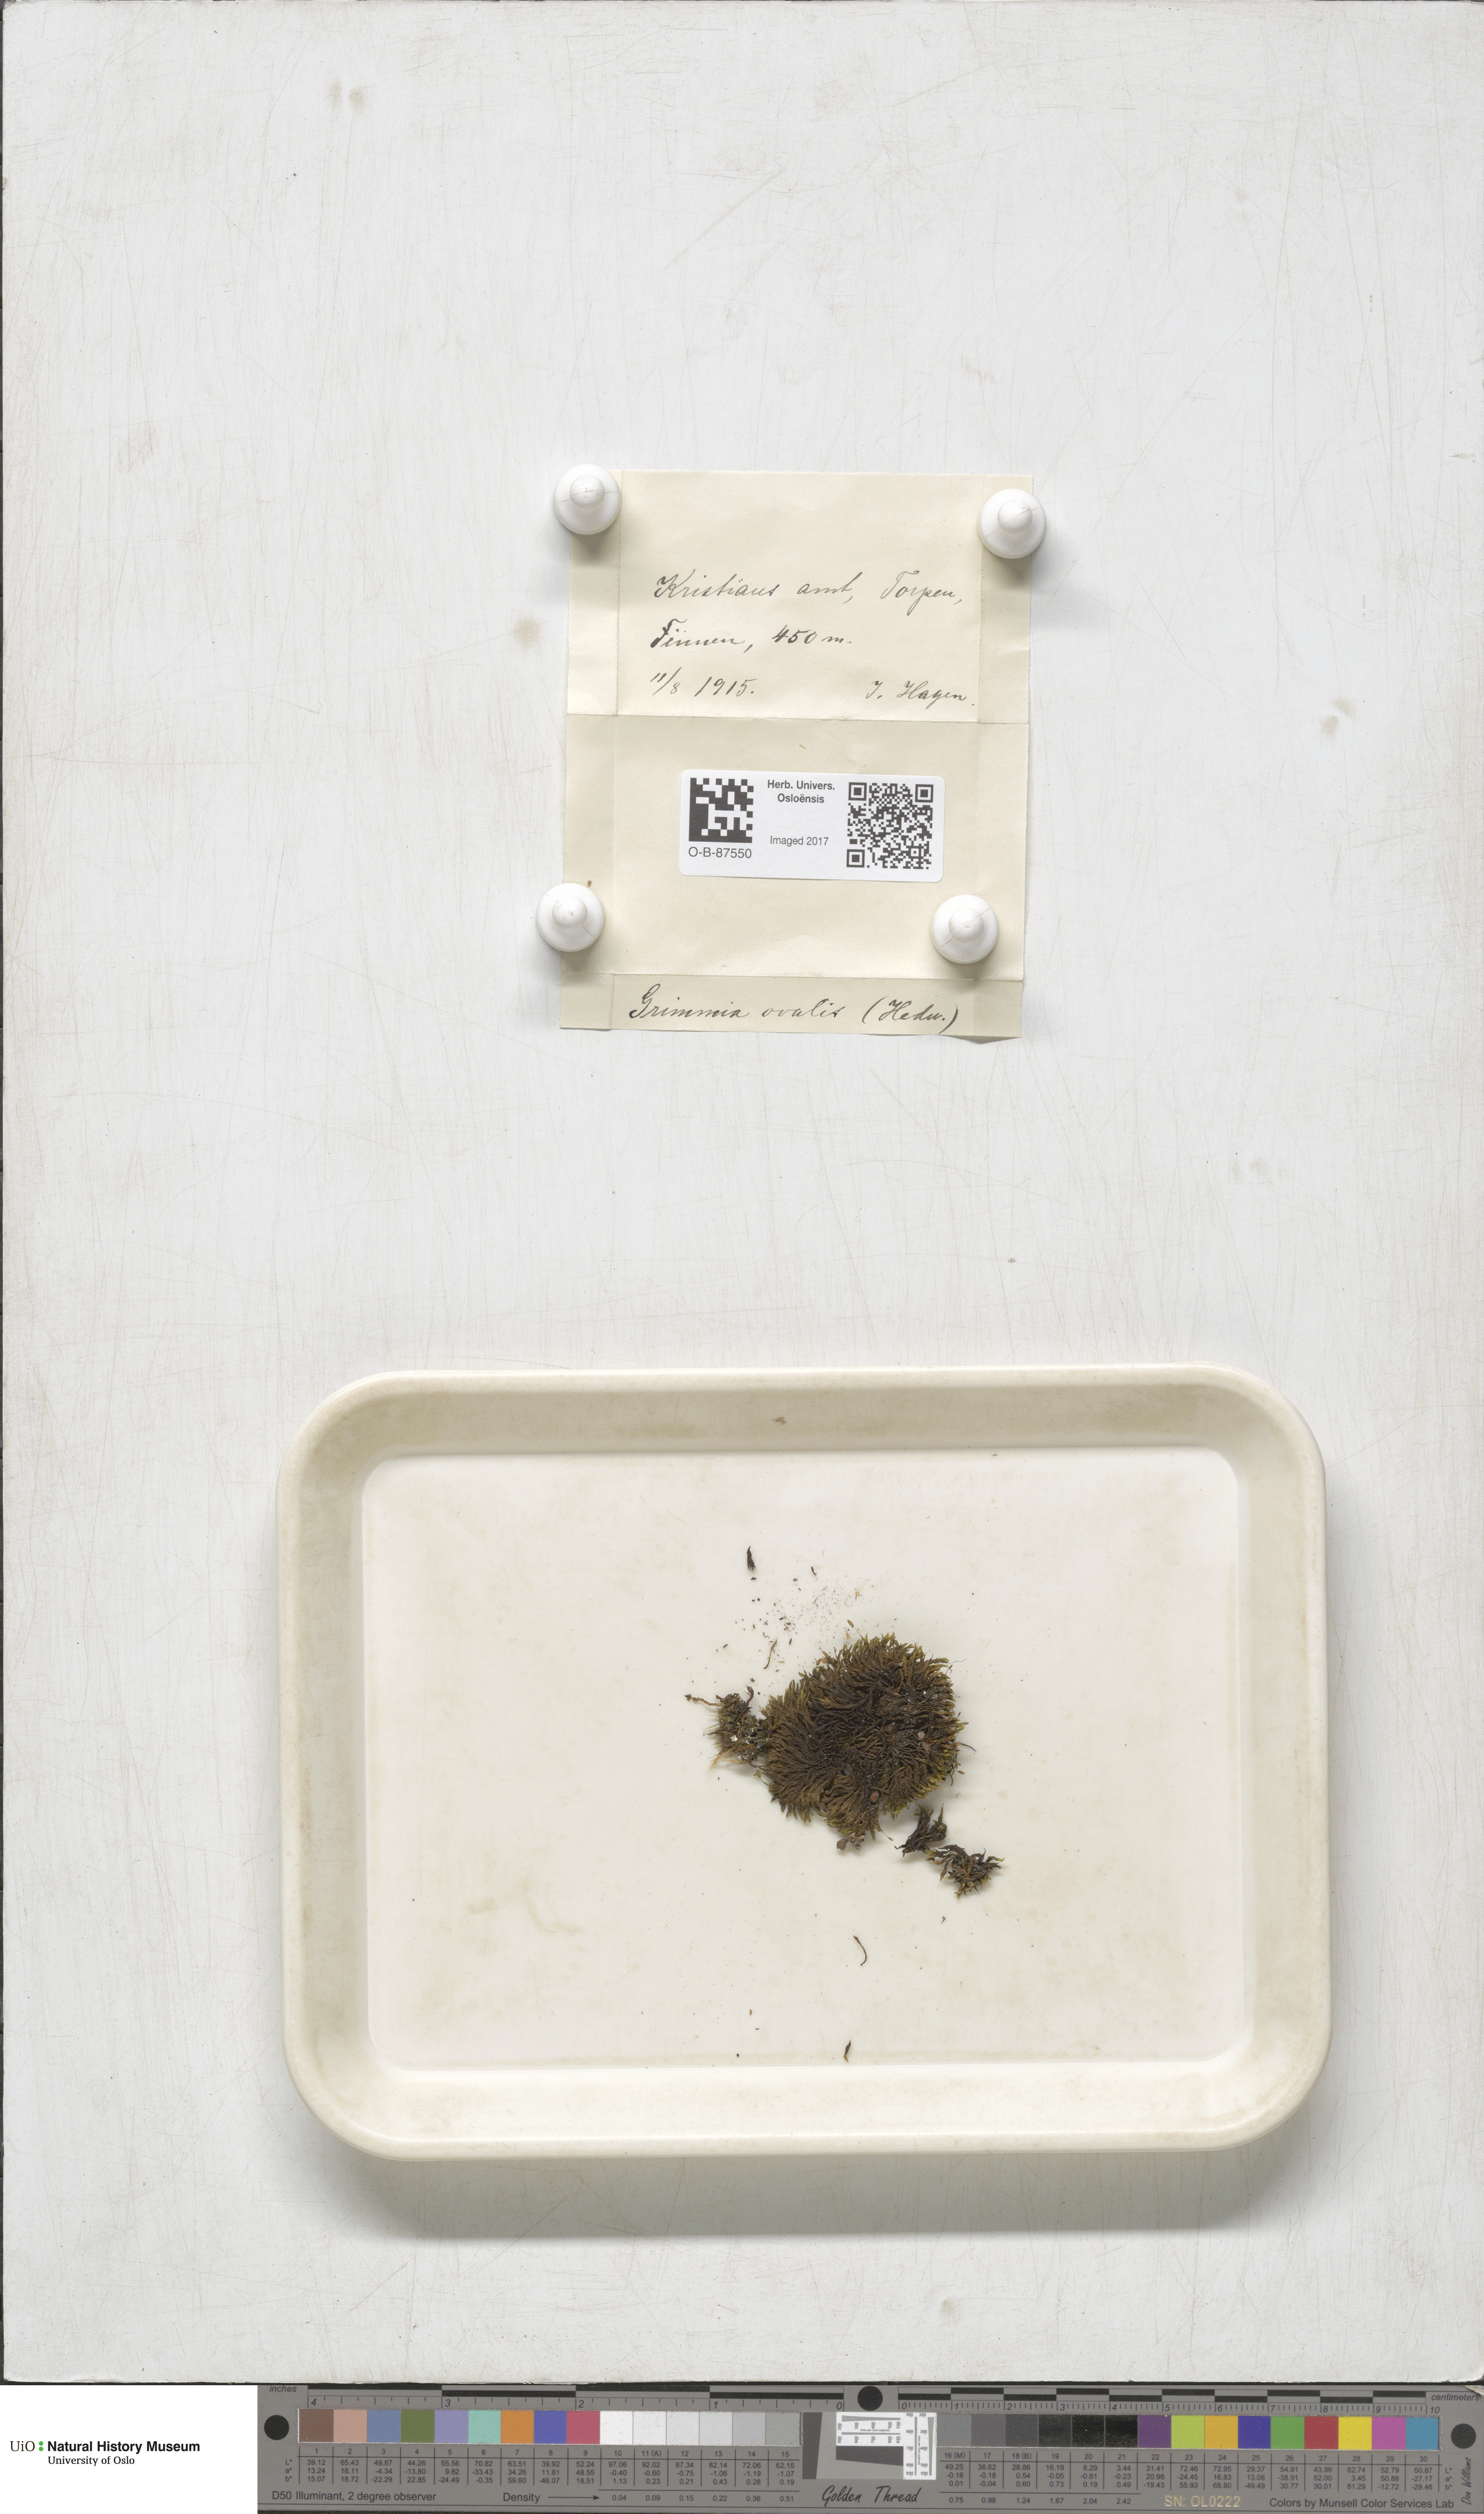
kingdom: Plantae
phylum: Bryophyta
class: Bryopsida
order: Grimmiales
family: Grimmiaceae
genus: Grimmia
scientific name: Grimmia ovalis
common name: Oval grimmia
